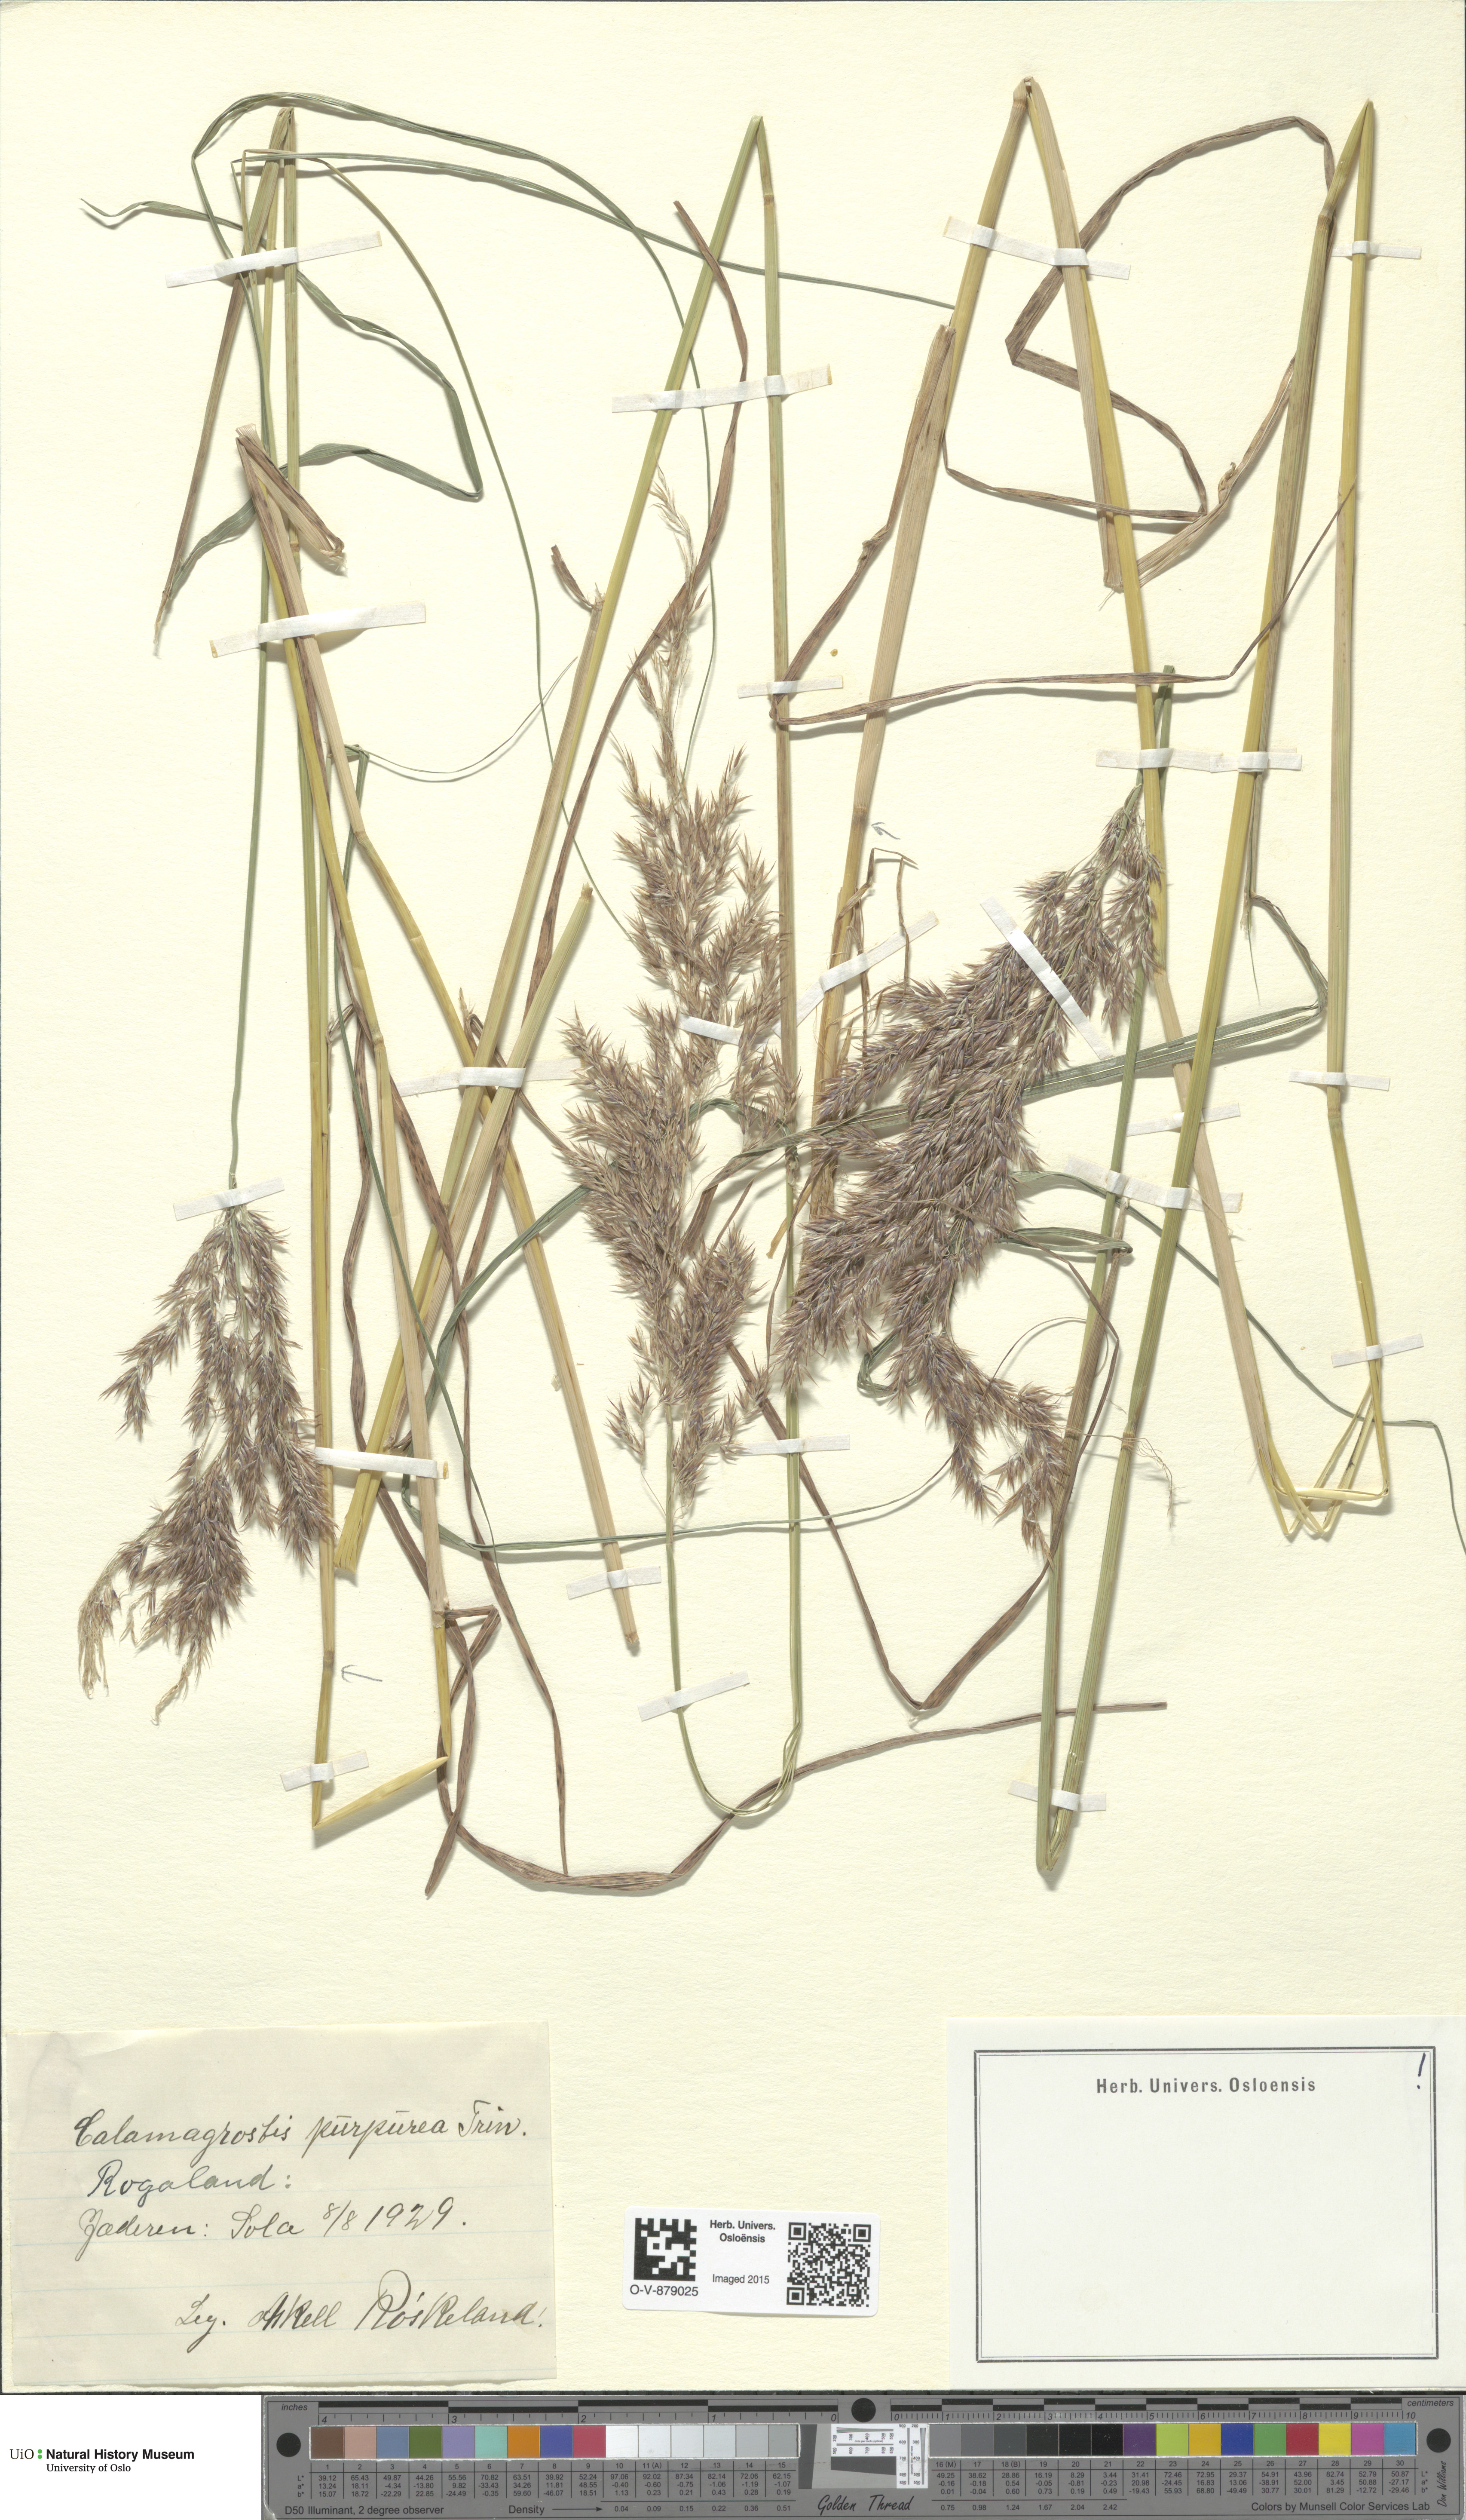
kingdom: Plantae
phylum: Tracheophyta
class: Liliopsida
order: Poales
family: Poaceae
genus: Calamagrostis
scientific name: Calamagrostis purpurea
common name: Scandinavian small-reed
